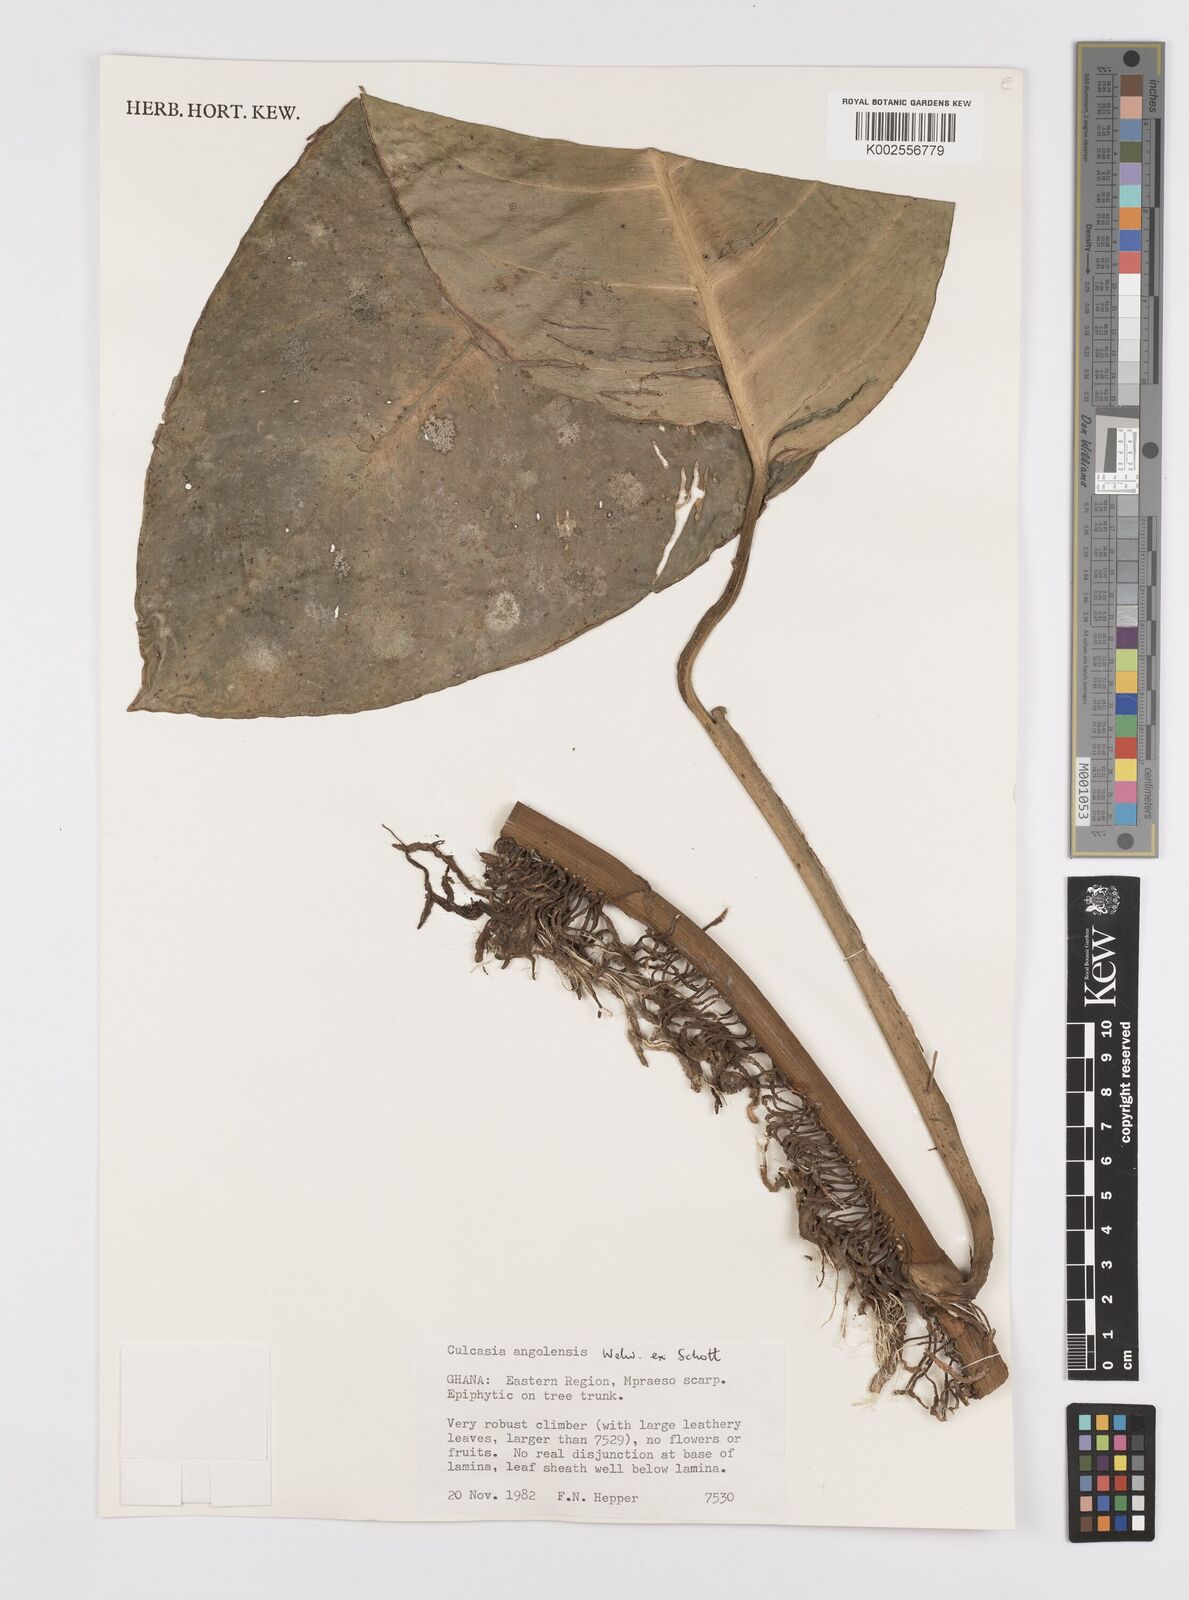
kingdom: Plantae
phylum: Tracheophyta
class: Liliopsida
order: Alismatales
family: Araceae
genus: Culcasia
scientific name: Culcasia angolensis
